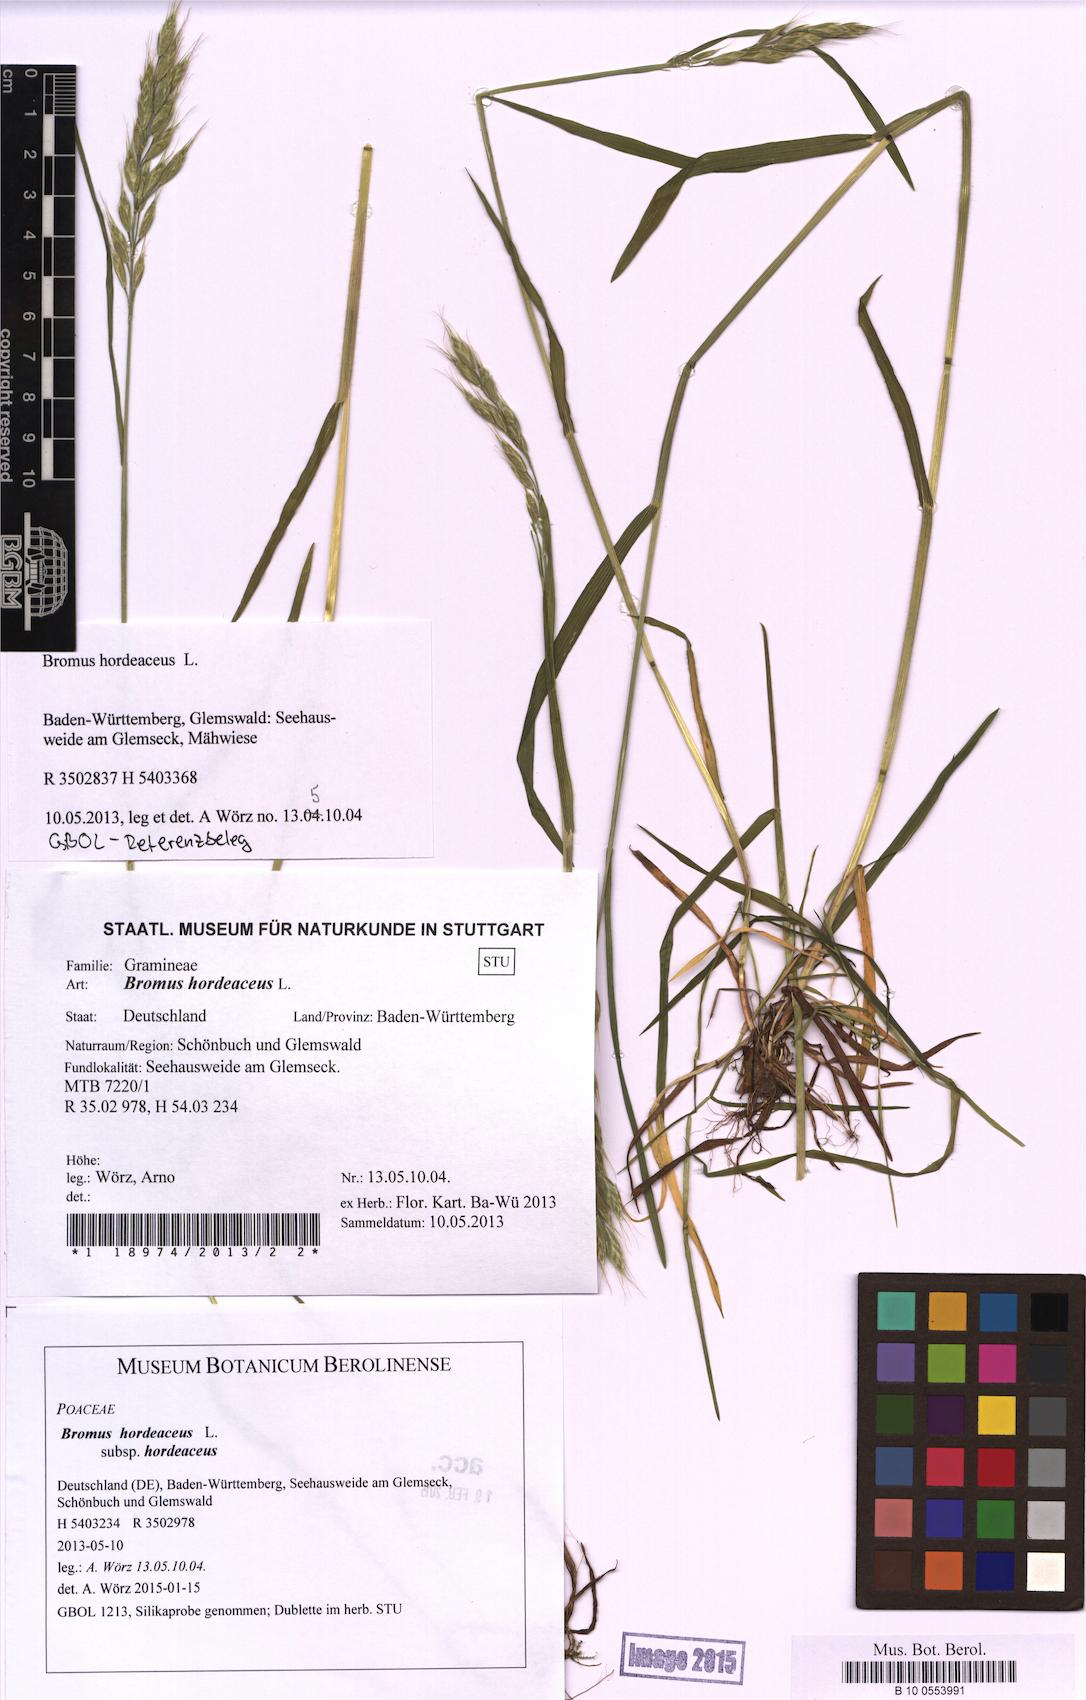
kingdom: Plantae
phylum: Tracheophyta
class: Liliopsida
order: Poales
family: Poaceae
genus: Bromus
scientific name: Bromus hordeaceus
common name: Soft brome
